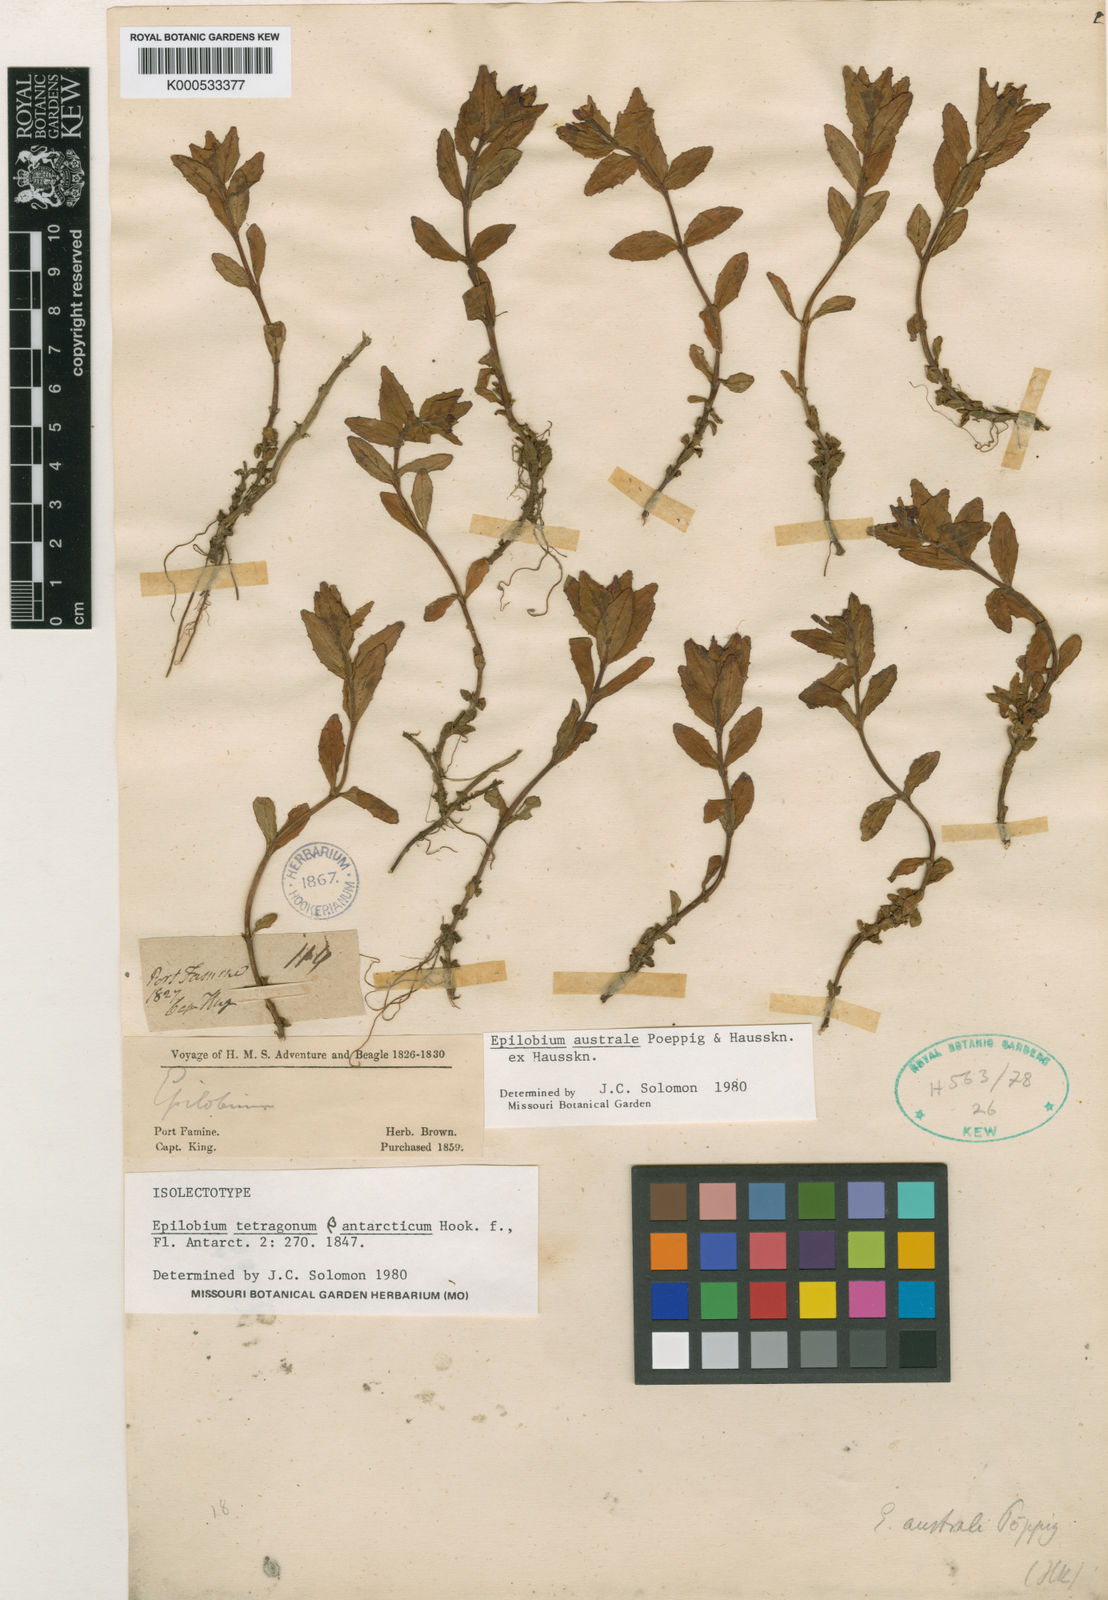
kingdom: Plantae
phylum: Tracheophyta
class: Magnoliopsida
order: Myrtales
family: Onagraceae
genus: Epilobium
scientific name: Epilobium australe
